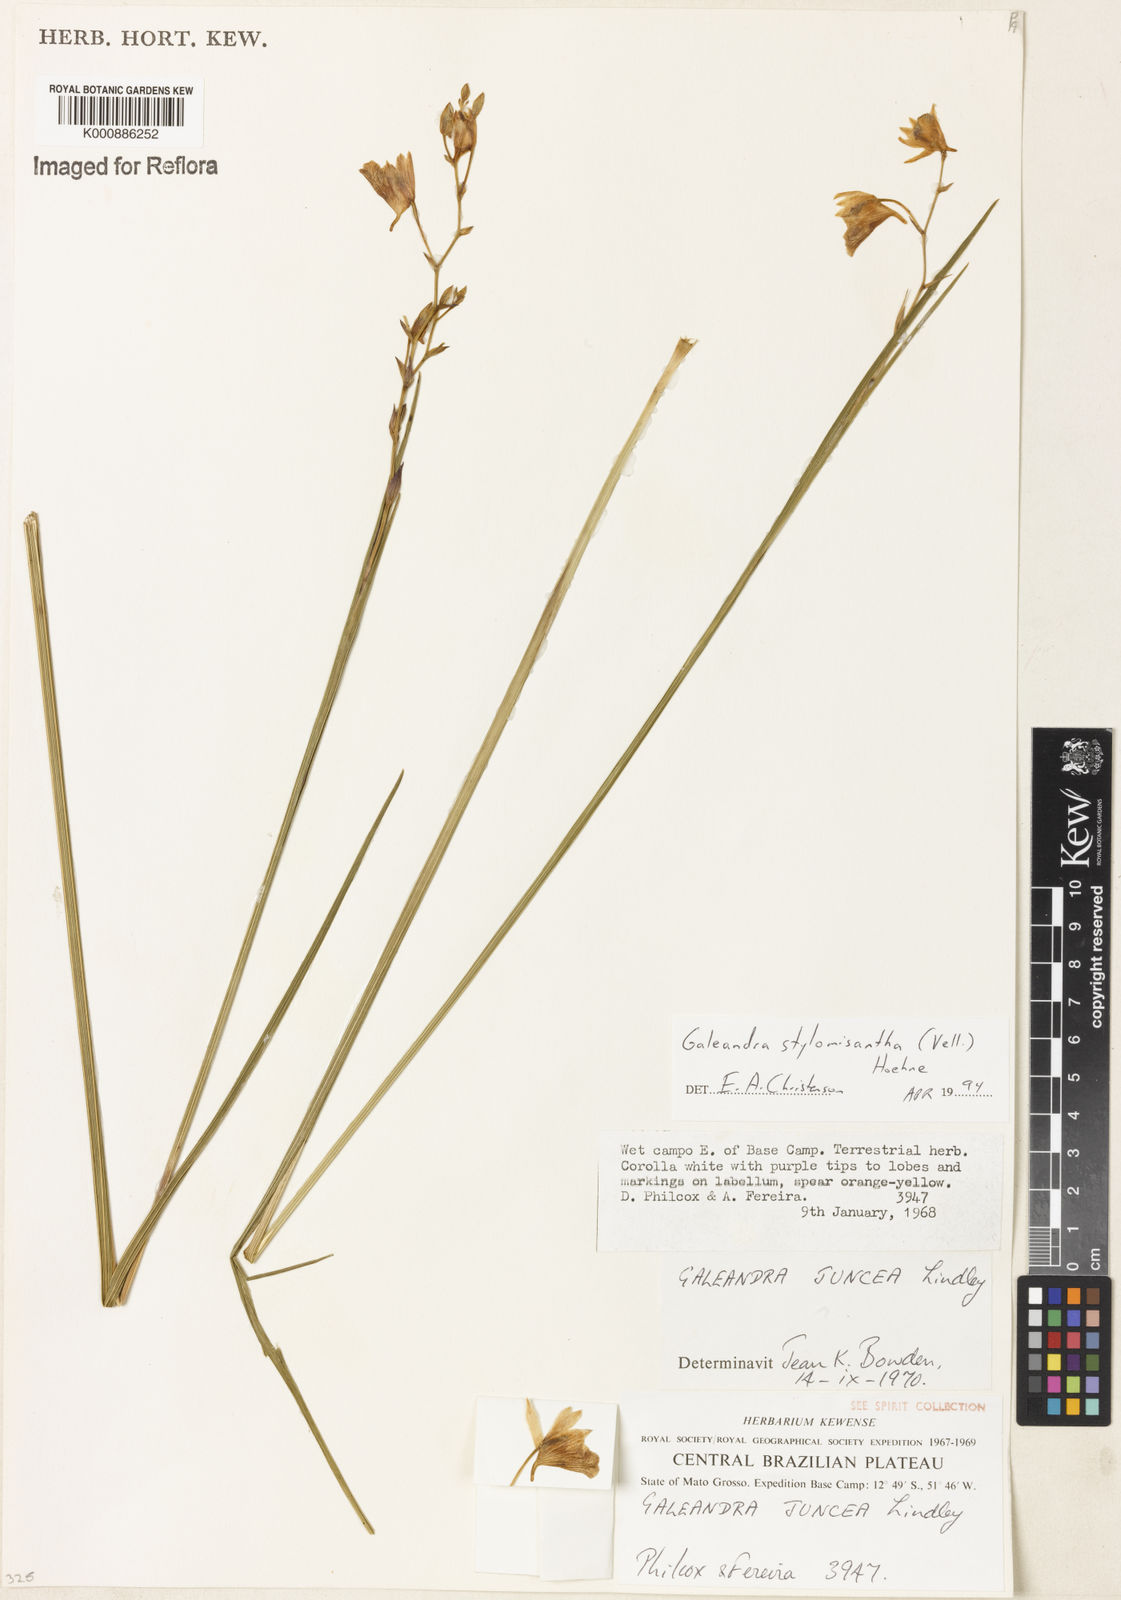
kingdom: Plantae
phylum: Tracheophyta
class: Liliopsida
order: Asparagales
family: Orchidaceae
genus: Galeandra
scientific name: Galeandra styllomisantha
